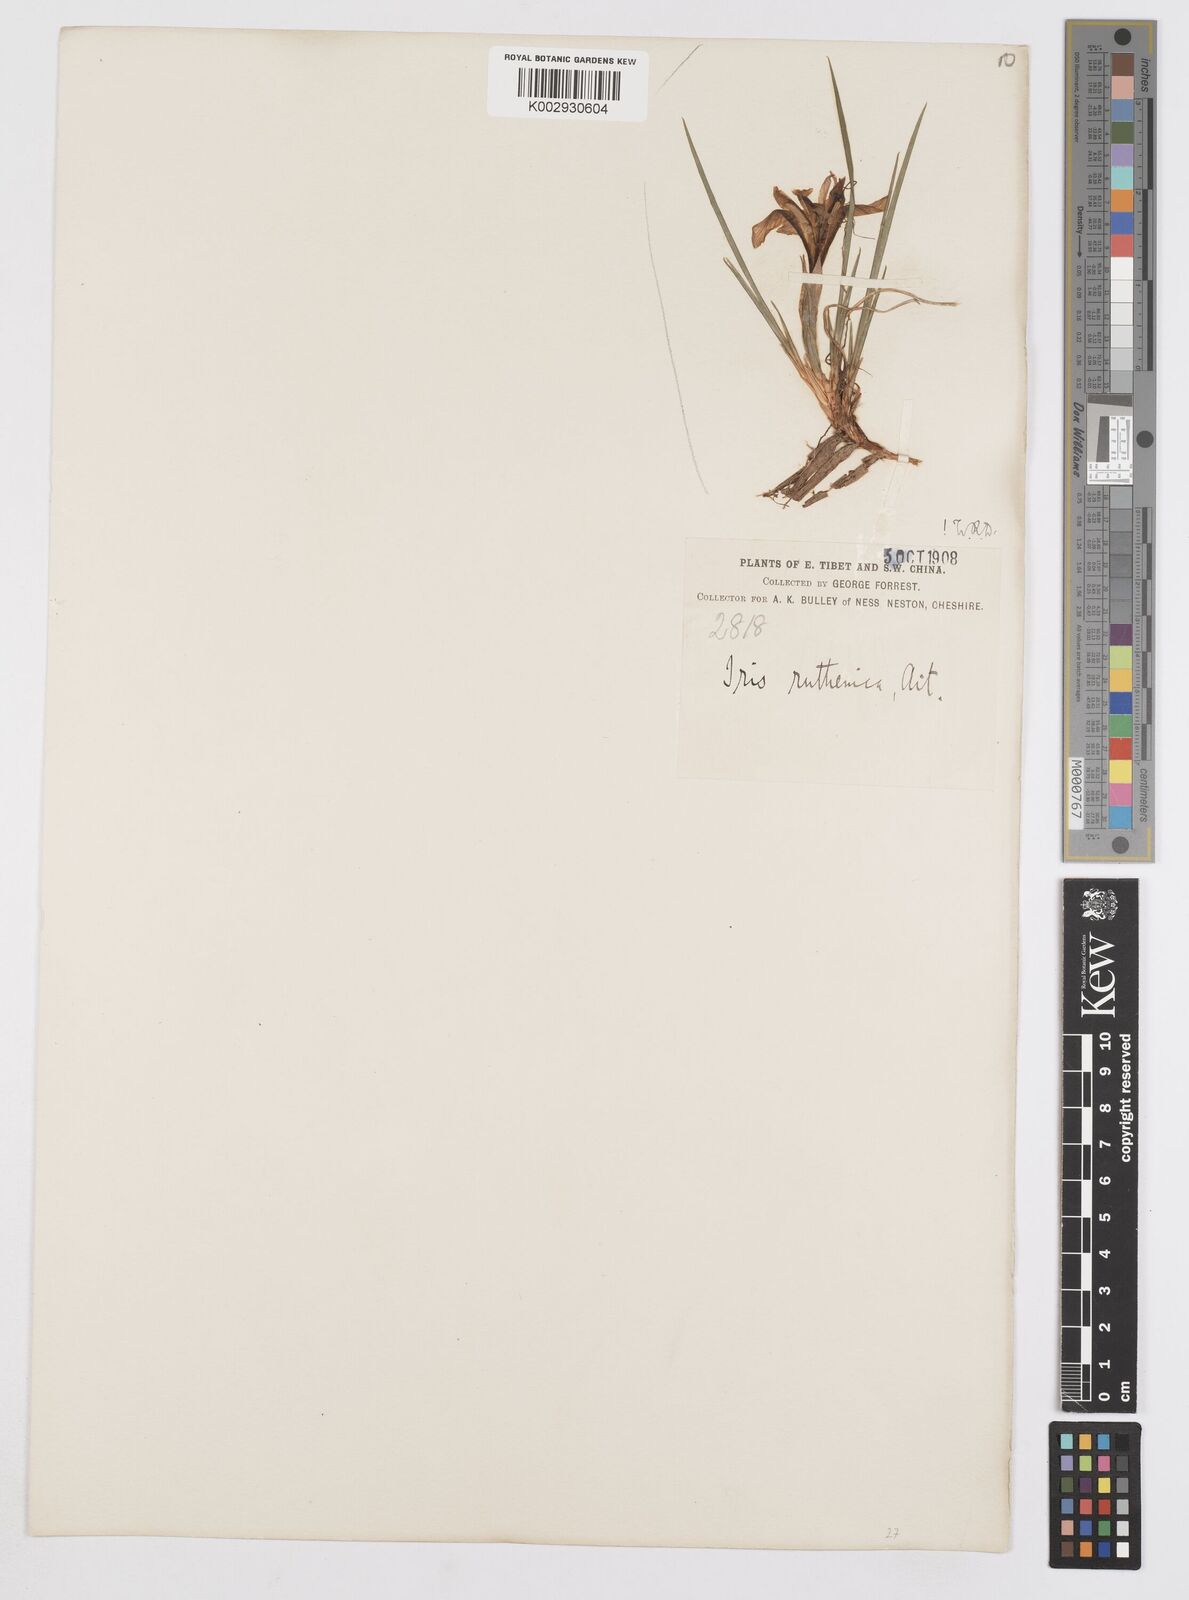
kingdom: Plantae
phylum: Tracheophyta
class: Liliopsida
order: Asparagales
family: Iridaceae
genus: Iris
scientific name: Iris ruthenica
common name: Purple-bract iris
